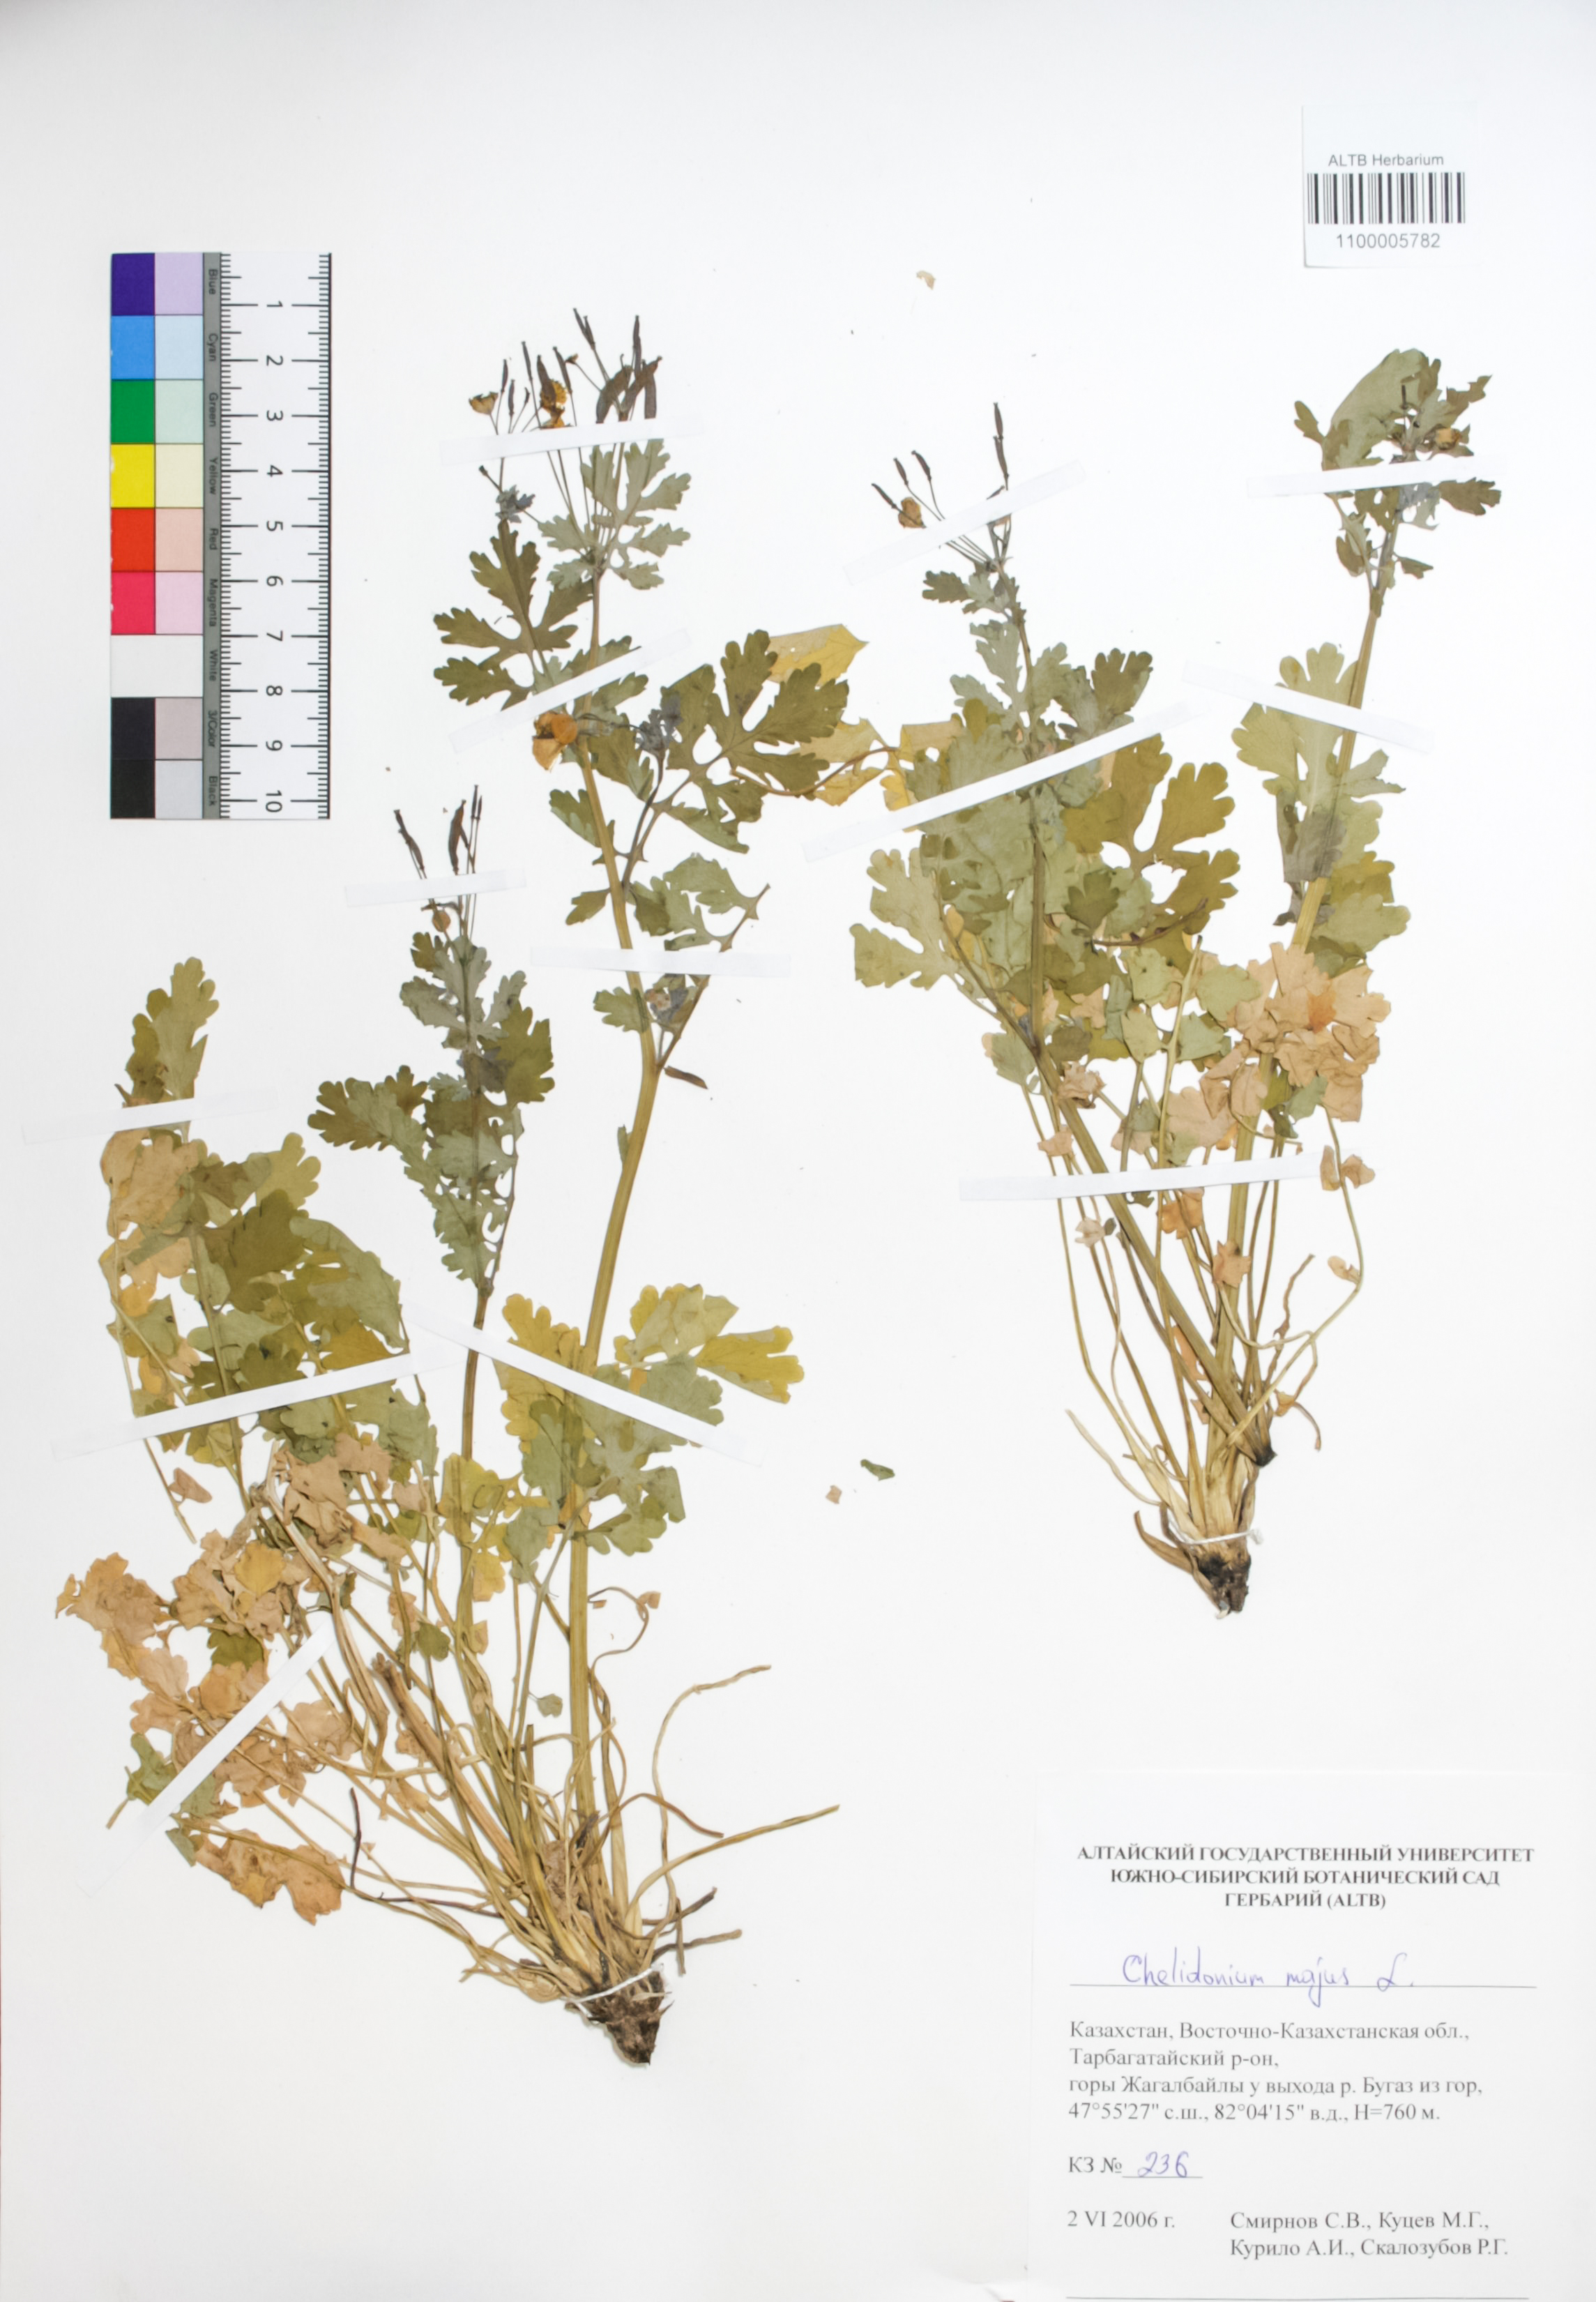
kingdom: Plantae
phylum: Tracheophyta
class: Magnoliopsida
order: Ranunculales
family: Papaveraceae
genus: Chelidonium
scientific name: Chelidonium majus
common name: Greater celandine
